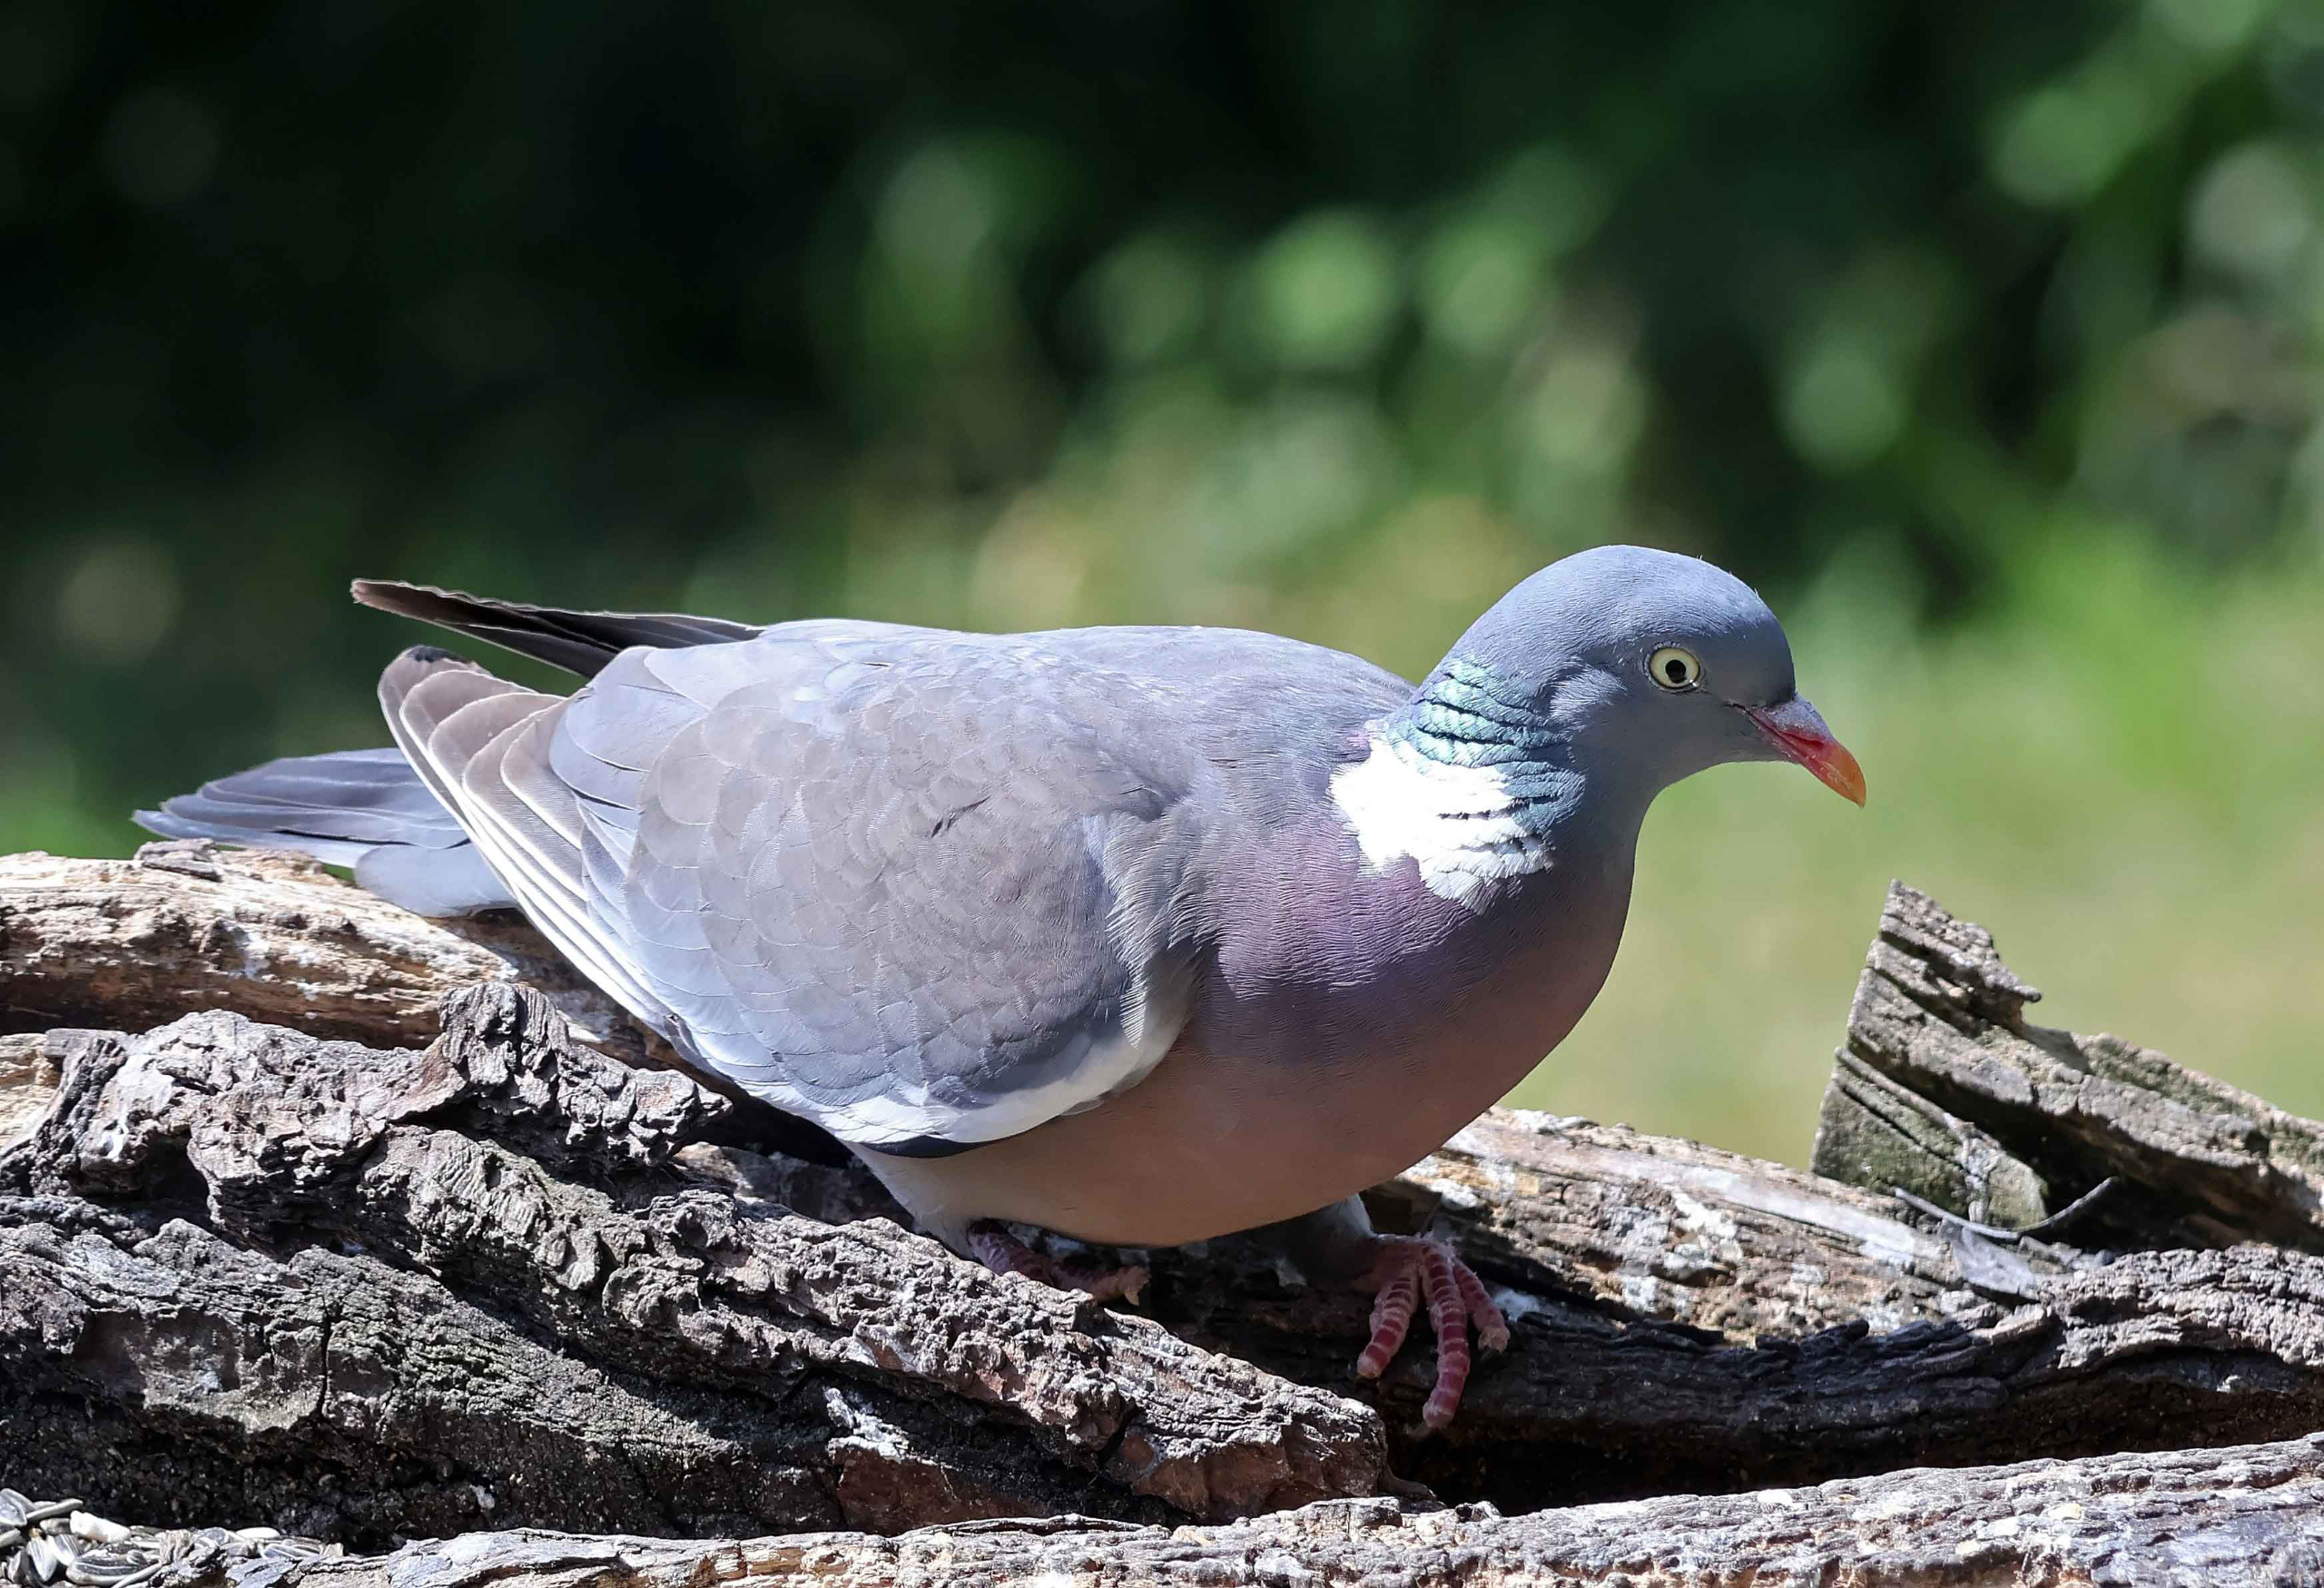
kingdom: Animalia
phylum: Chordata
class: Aves
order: Columbiformes
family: Columbidae
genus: Columba
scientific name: Columba palumbus
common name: Ringdue
